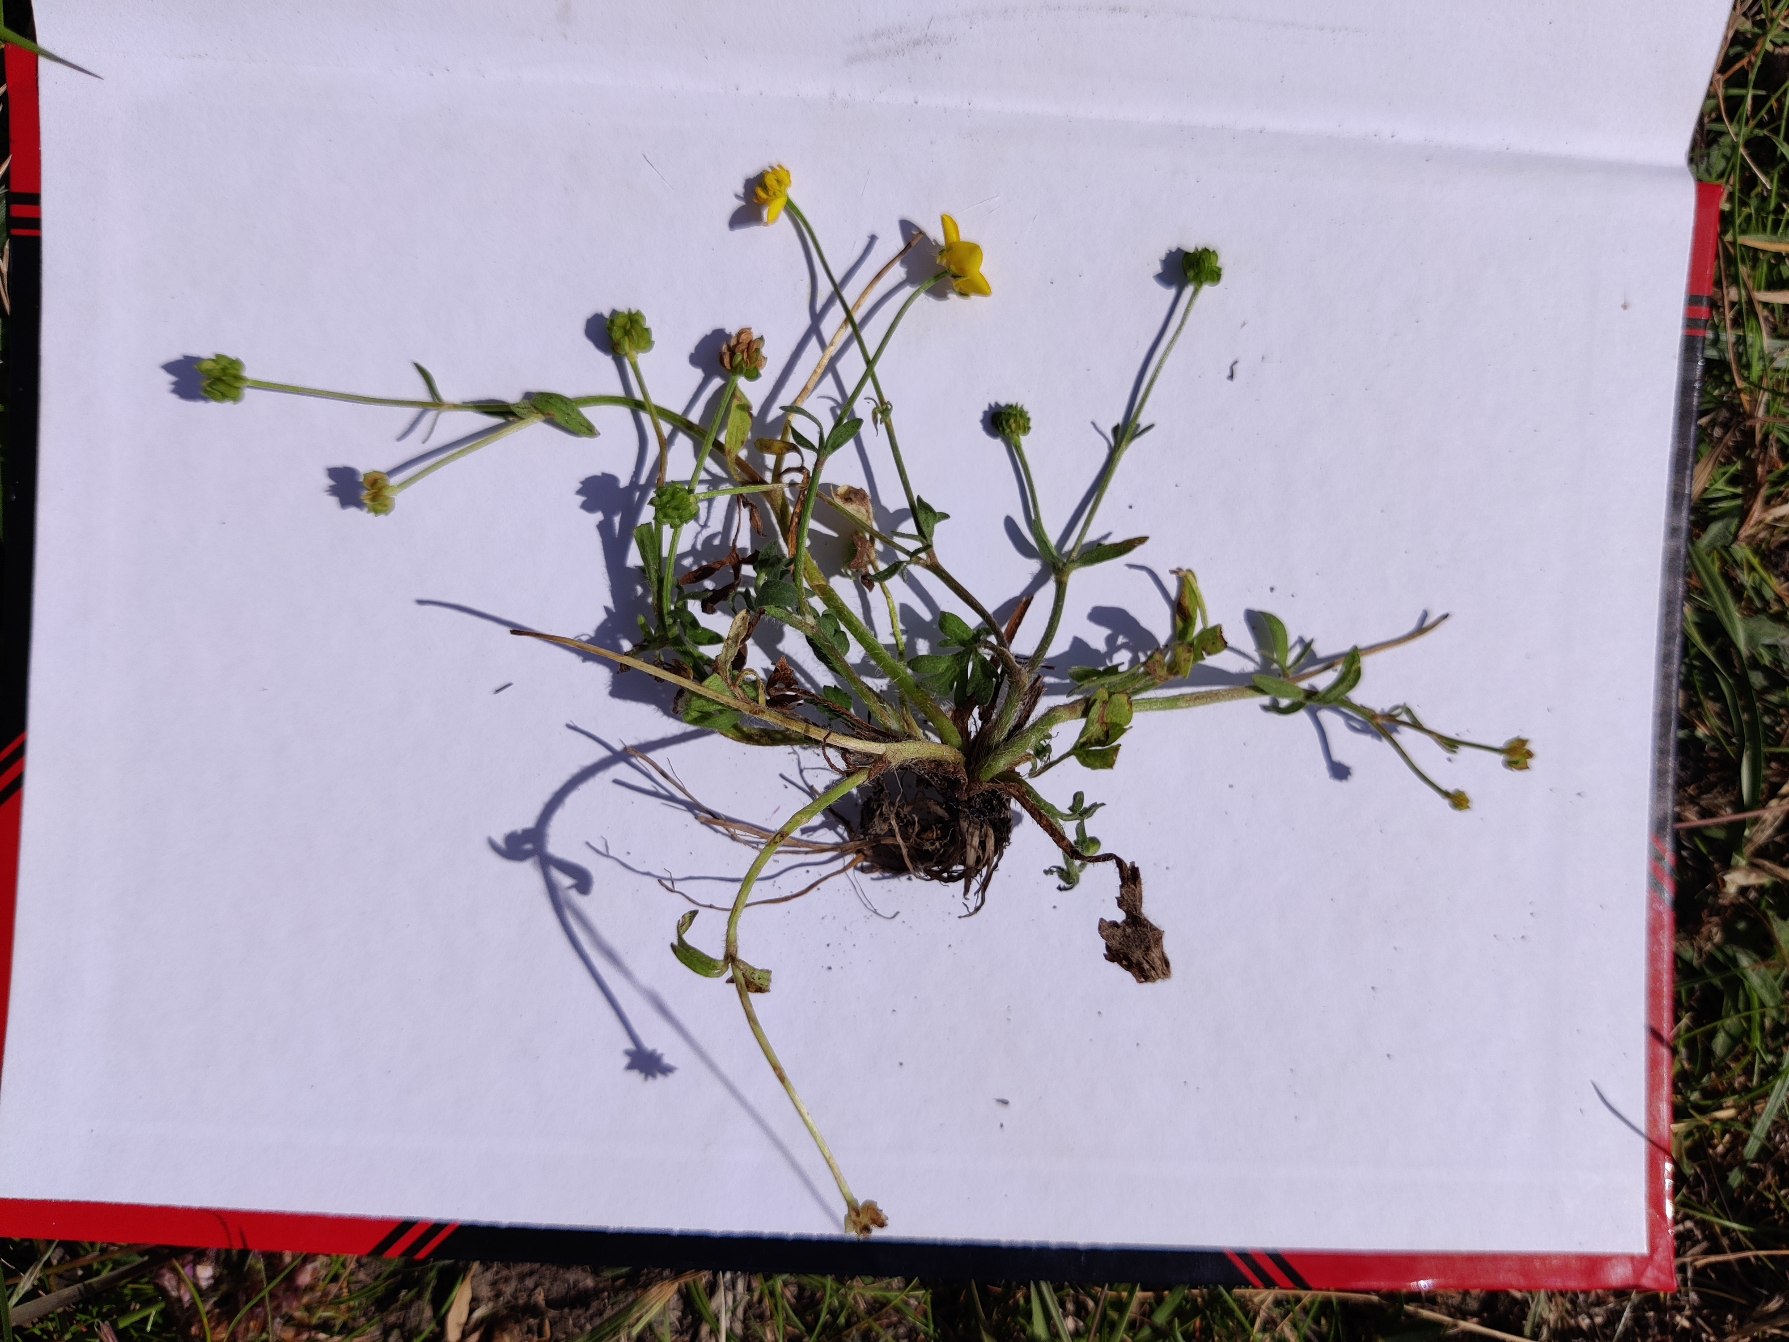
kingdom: Plantae
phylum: Tracheophyta
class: Magnoliopsida
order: Ranunculales
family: Ranunculaceae
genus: Ranunculus
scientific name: Ranunculus
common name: Ranunkelslægten
